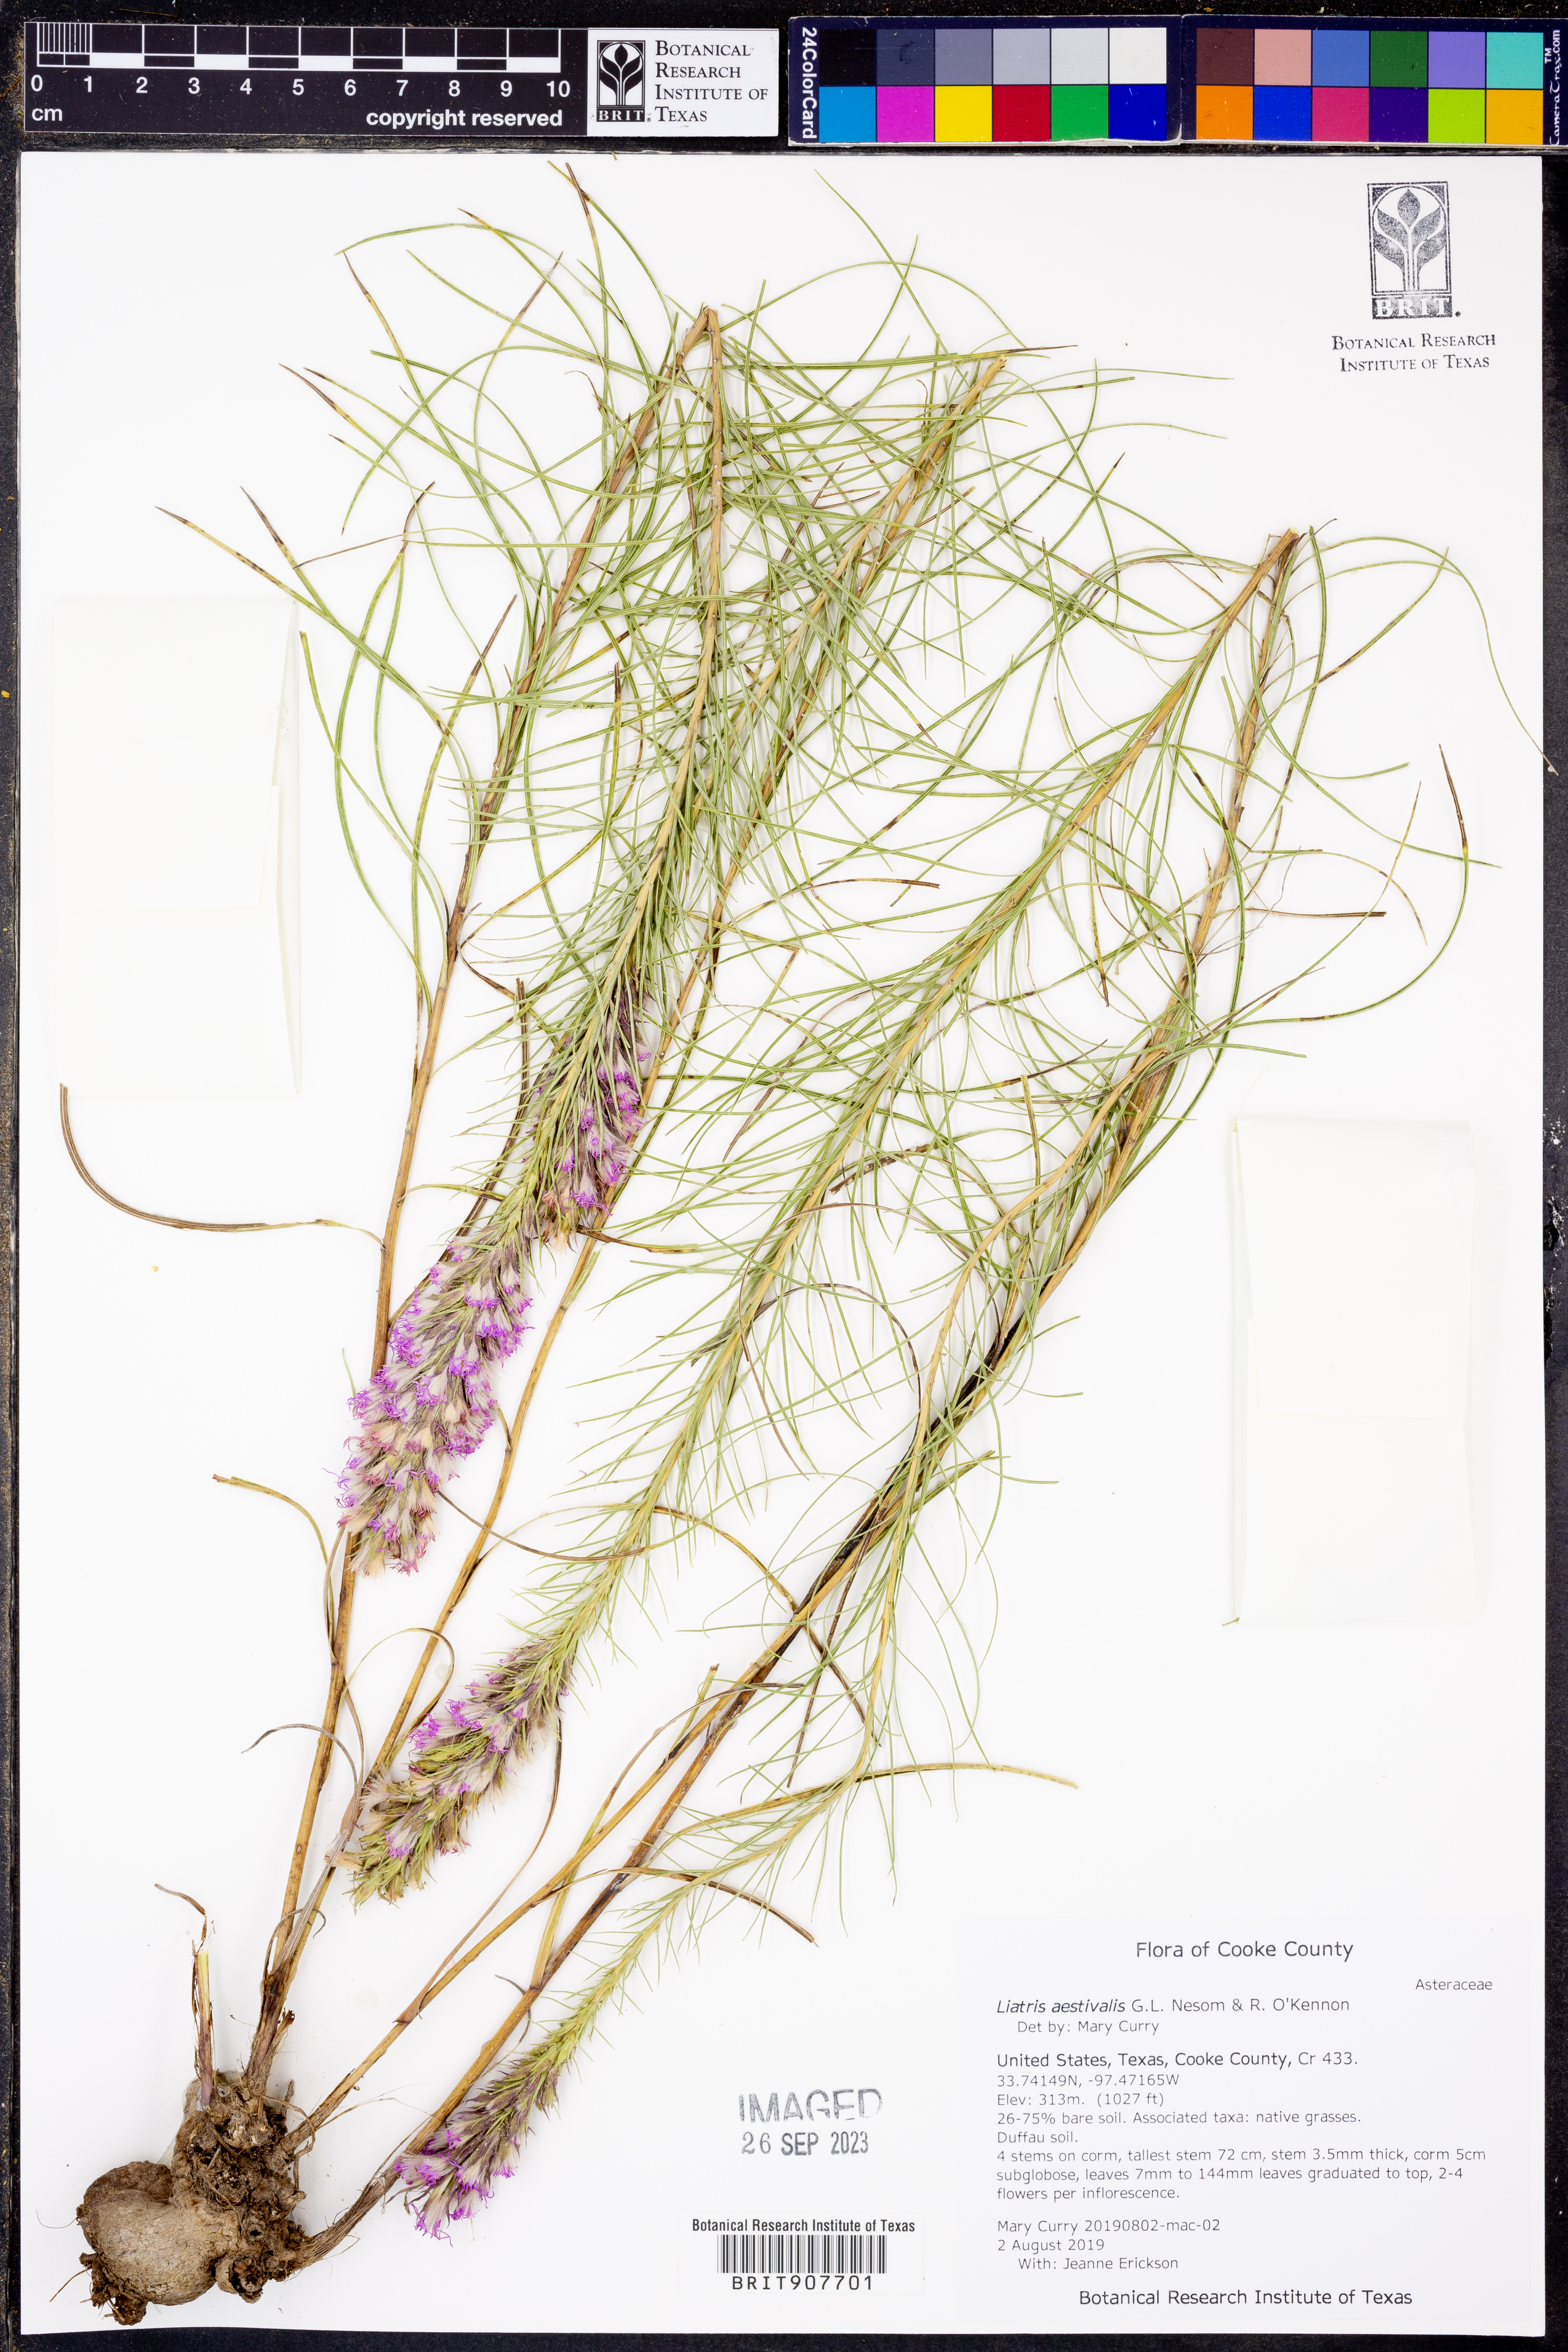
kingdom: Plantae
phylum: Tracheophyta
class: Magnoliopsida
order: Asterales
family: Asteraceae
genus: Liatris
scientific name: Liatris aestivalis
